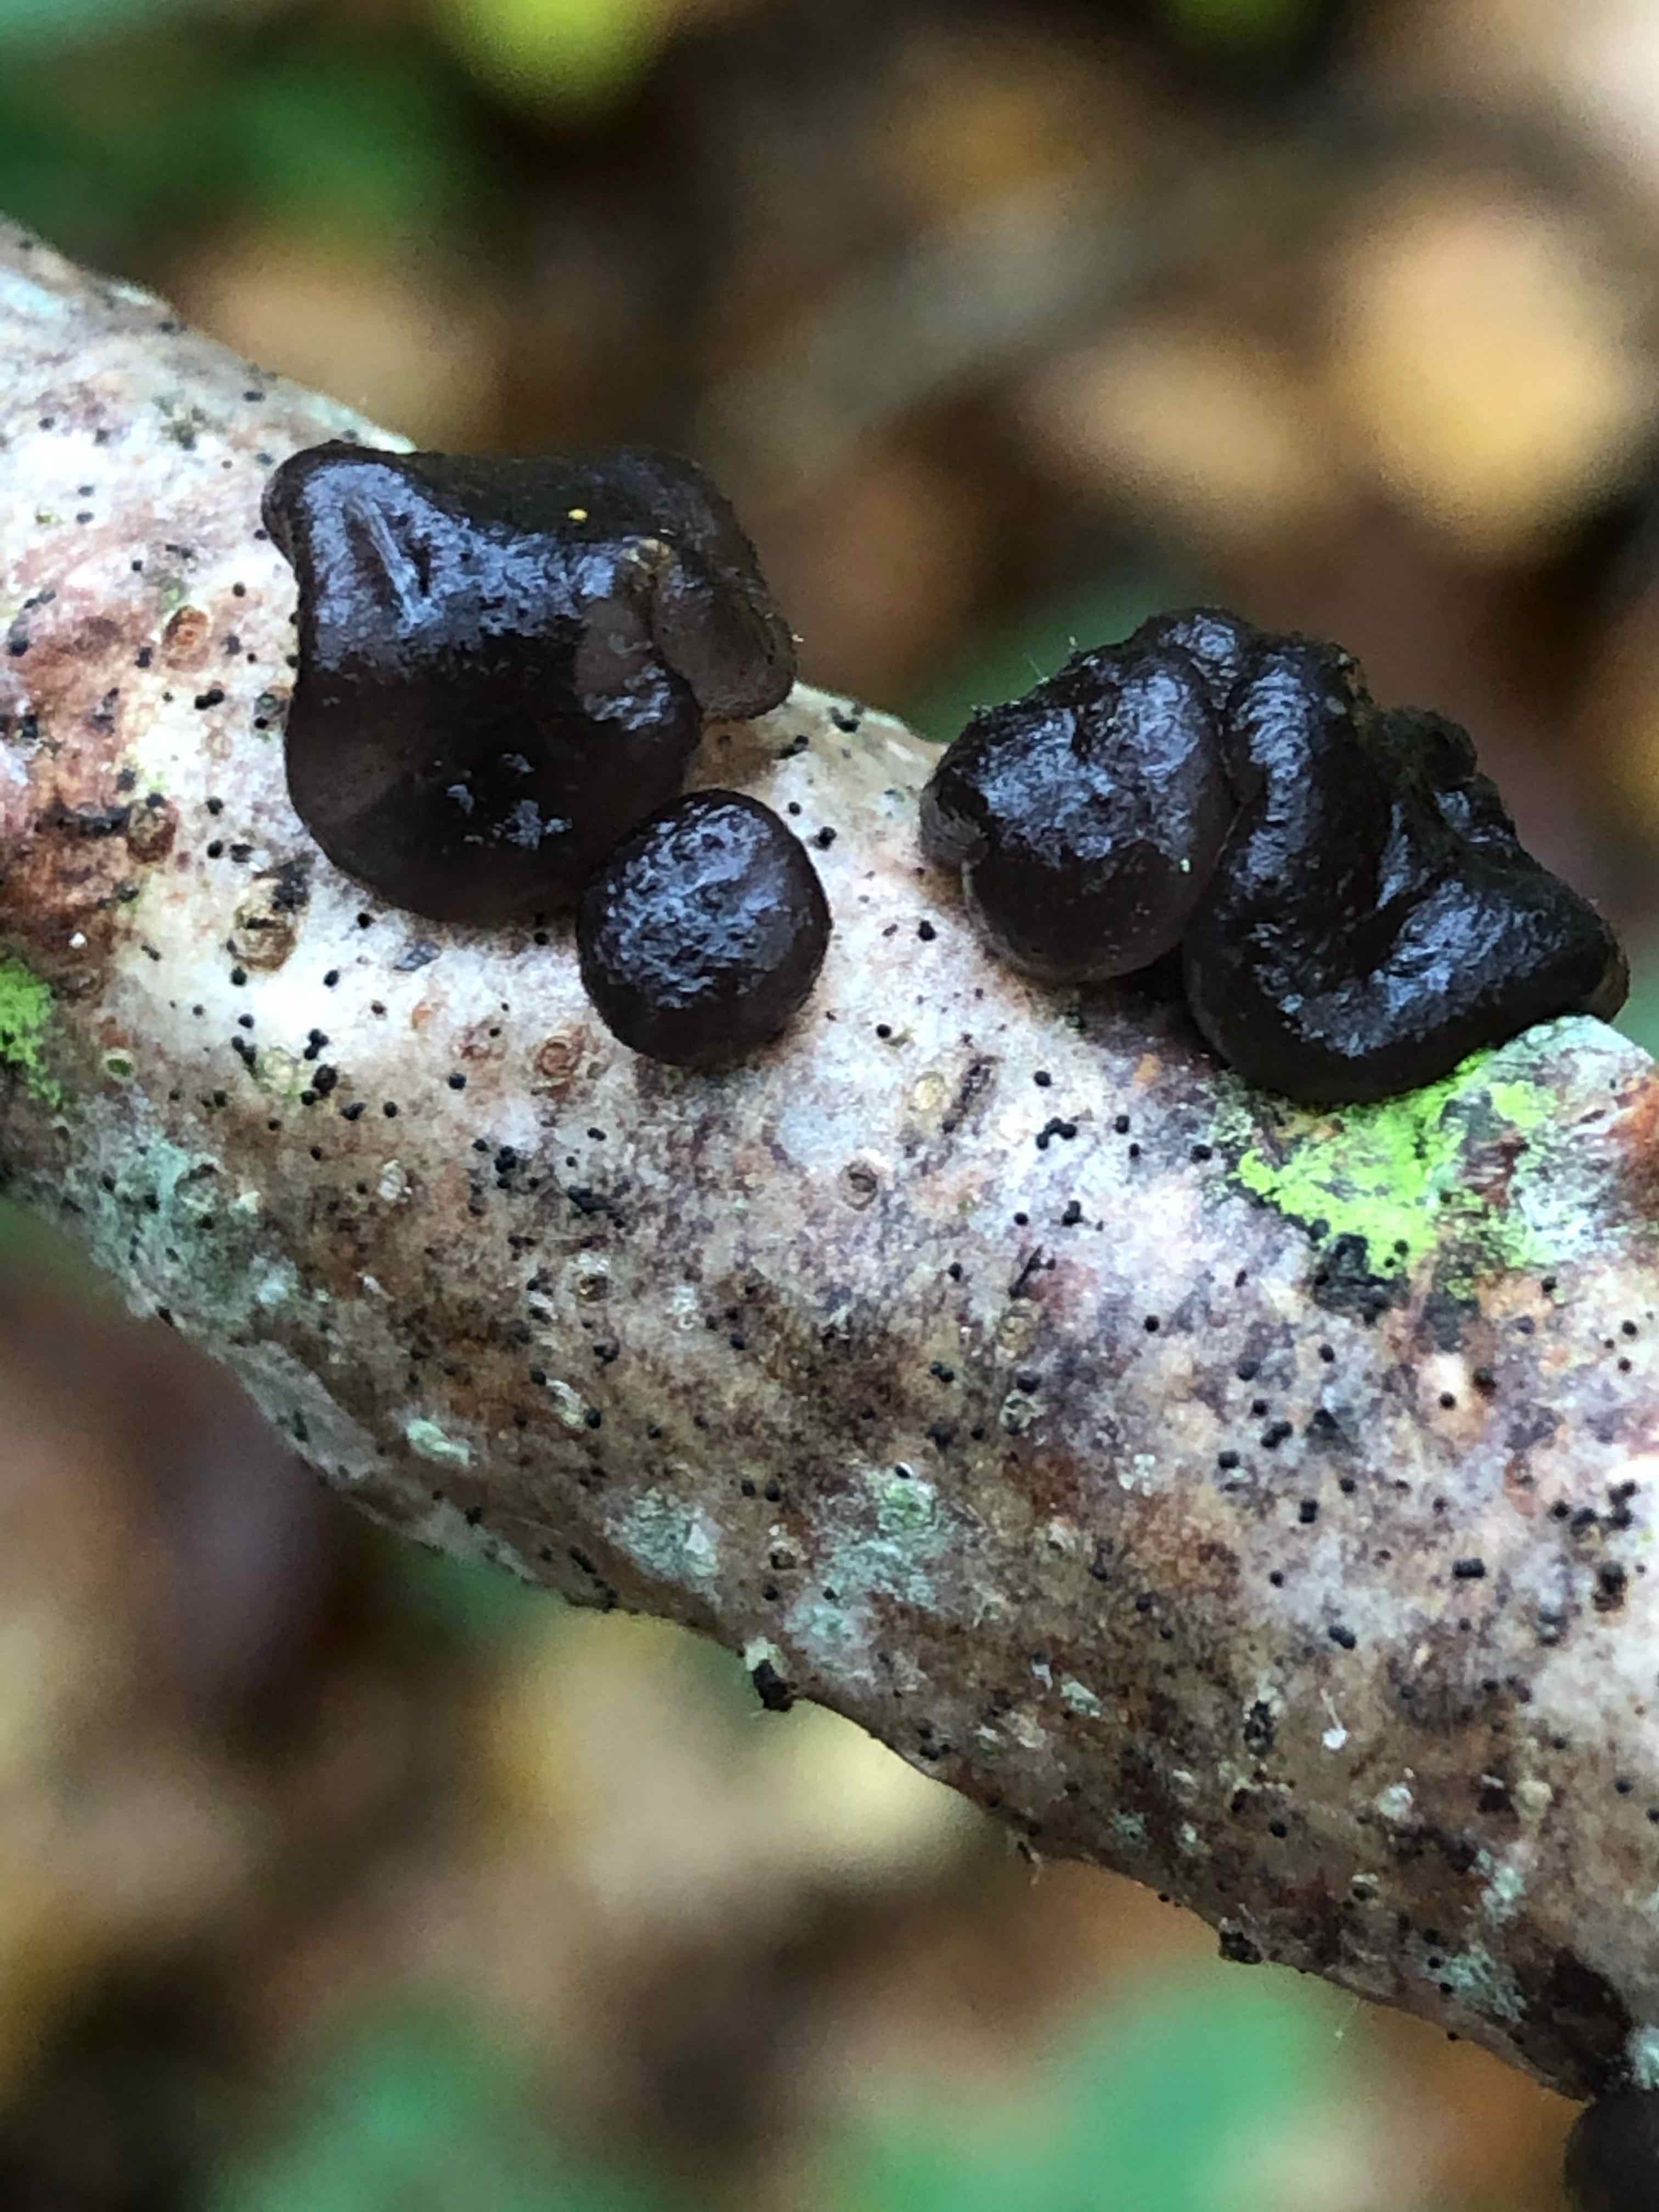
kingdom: Fungi
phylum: Basidiomycota
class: Agaricomycetes
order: Auriculariales
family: Auriculariaceae
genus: Exidia
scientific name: Exidia nigricans
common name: almindelig bævretop
